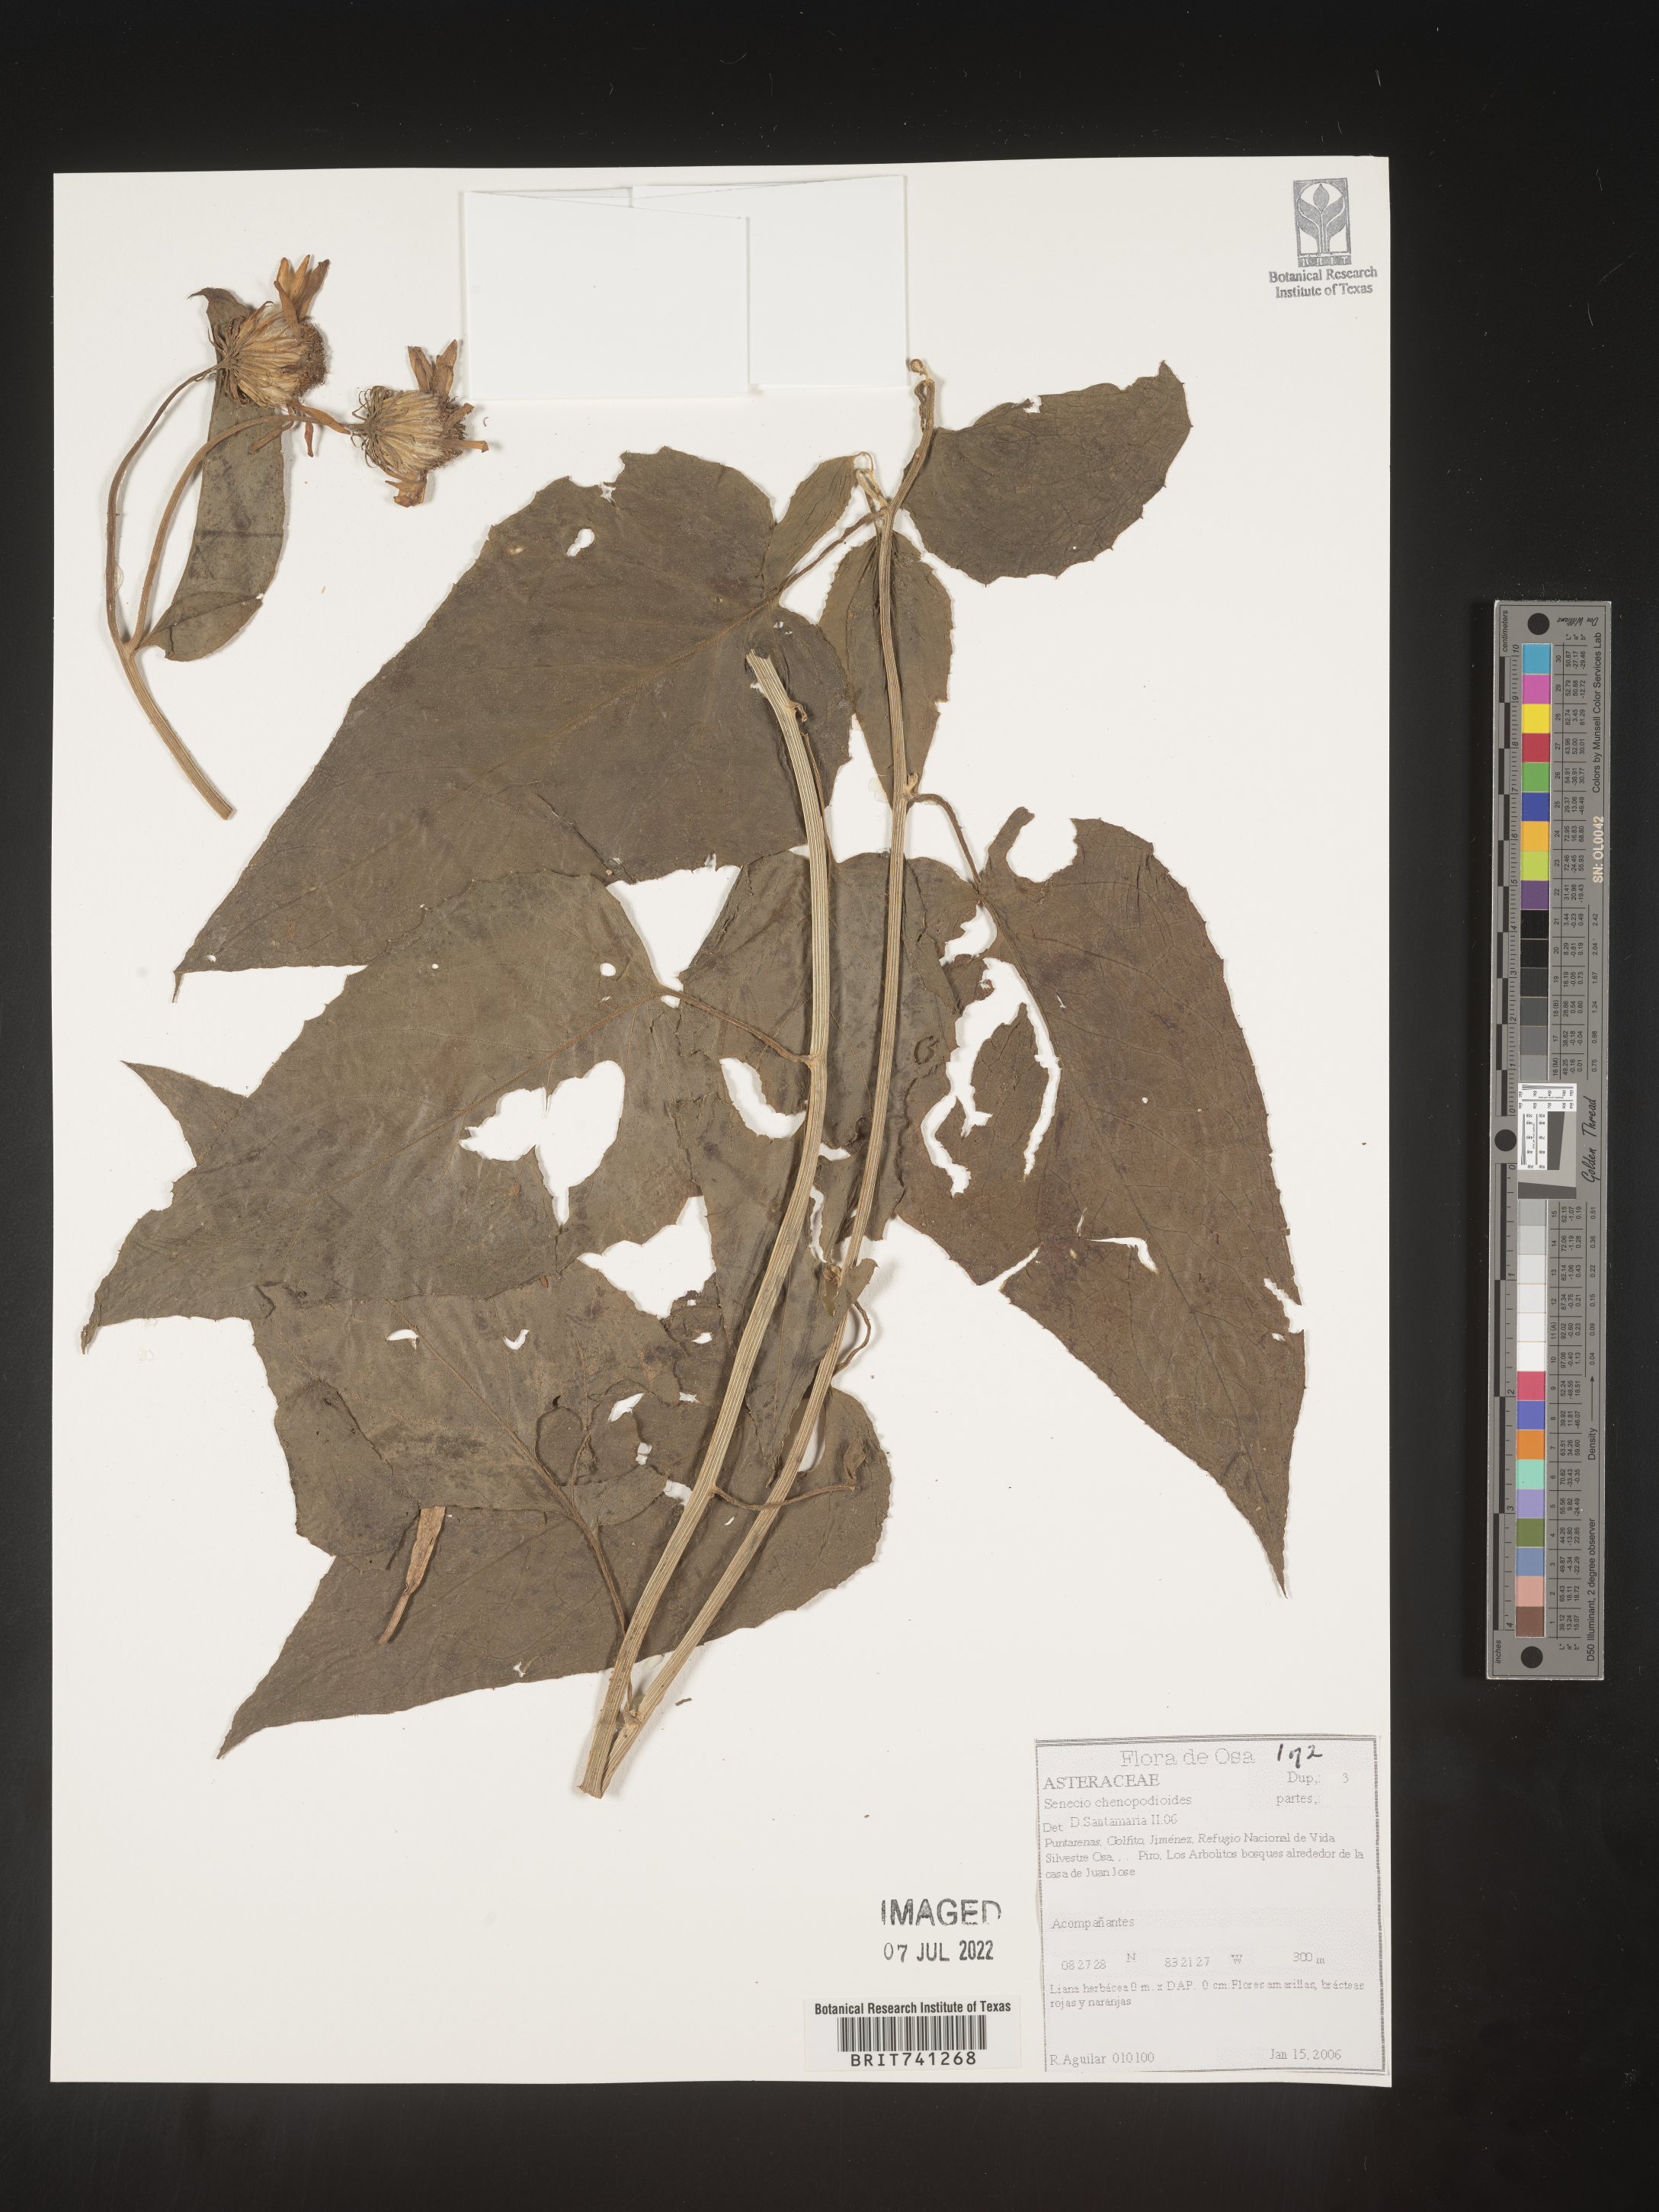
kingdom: Plantae
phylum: Tracheophyta
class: Magnoliopsida
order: Asterales
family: Asteraceae
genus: Senecio
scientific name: Senecio
